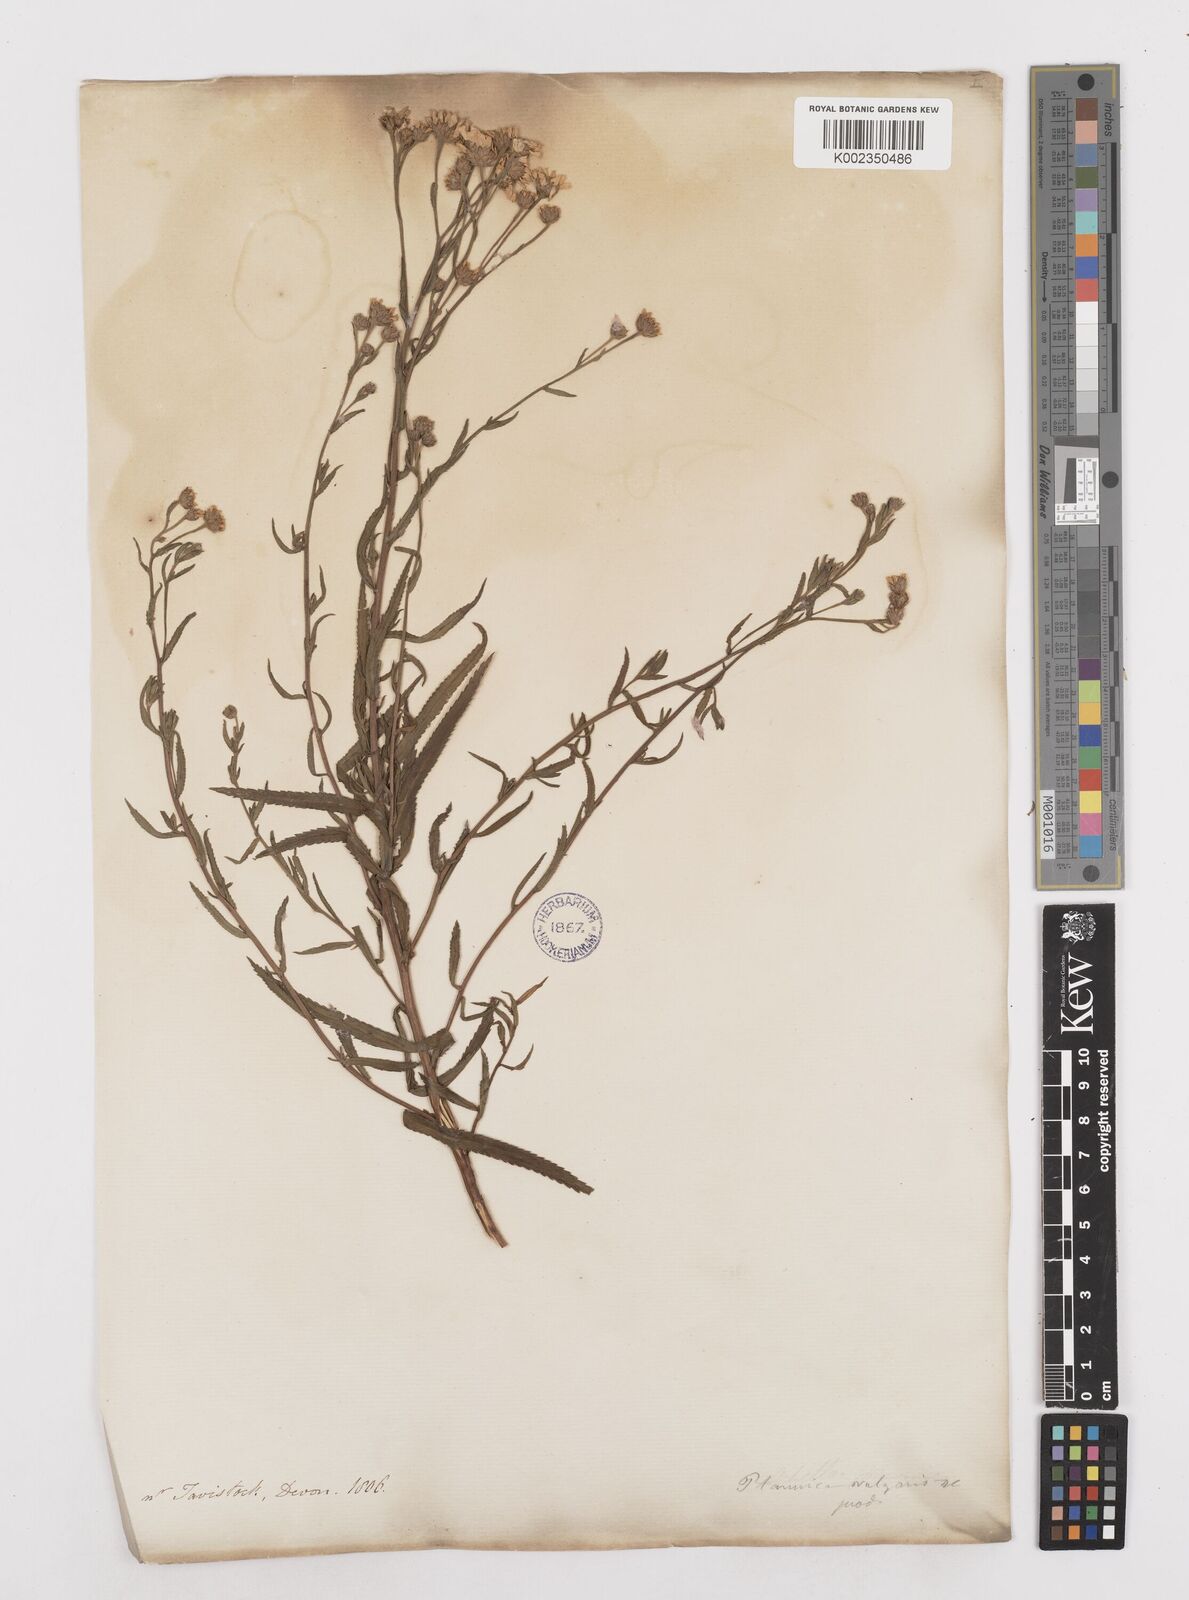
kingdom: Plantae
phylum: Tracheophyta
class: Magnoliopsida
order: Asterales
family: Asteraceae
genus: Achillea
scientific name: Achillea ptarmica
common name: Sneezeweed
